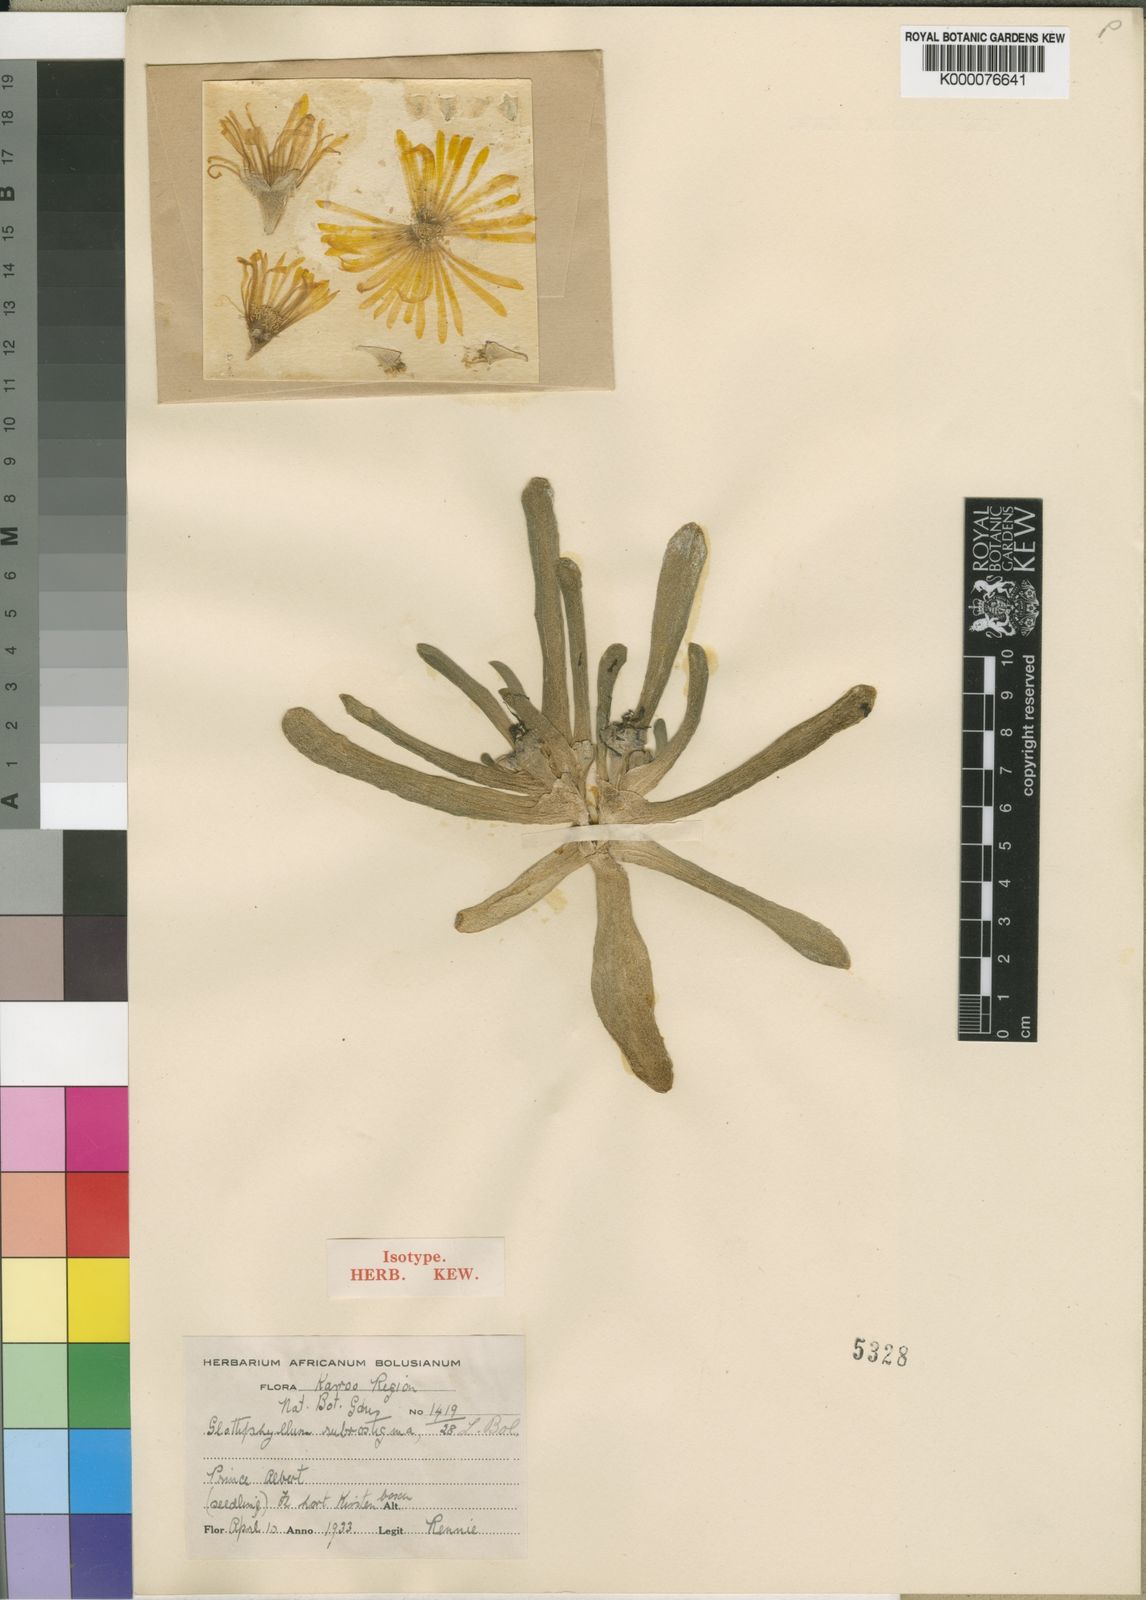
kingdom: Plantae
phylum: Tracheophyta
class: Magnoliopsida
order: Caryophyllales
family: Aizoaceae
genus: Glottiphyllum
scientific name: Glottiphyllum surrectum
